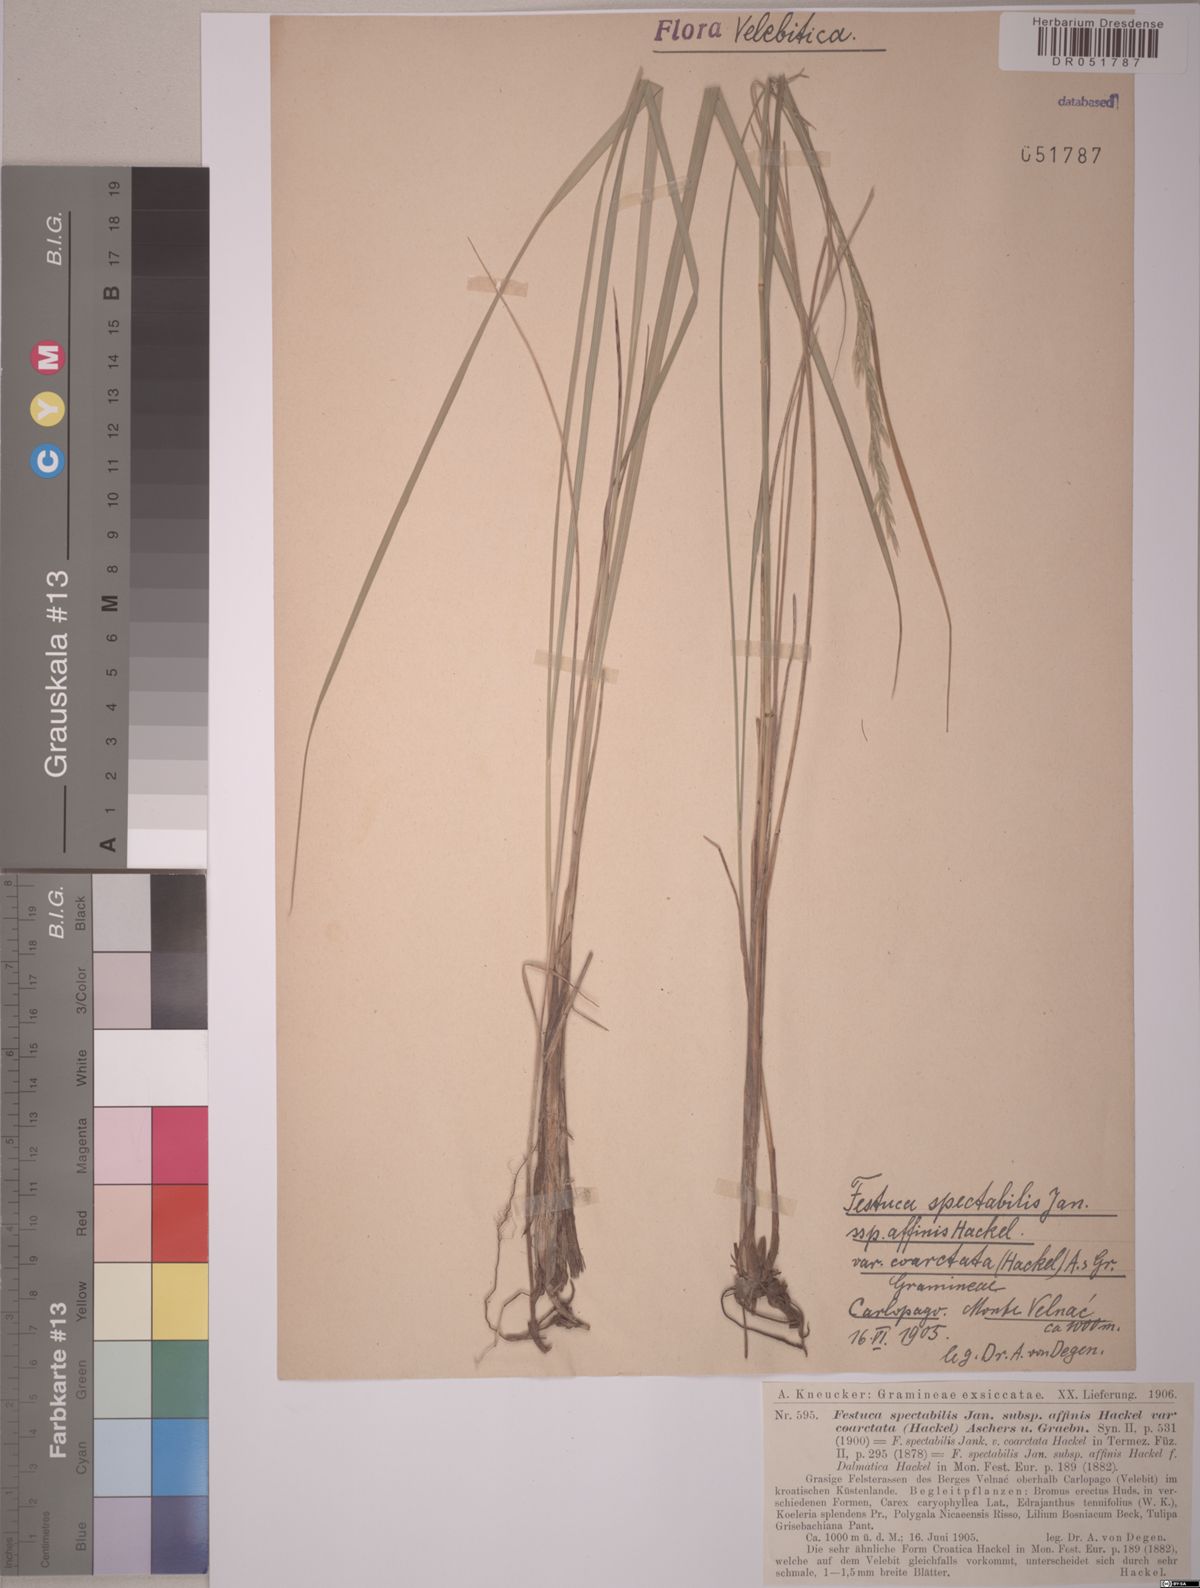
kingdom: Plantae
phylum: Tracheophyta
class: Liliopsida
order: Poales
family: Poaceae
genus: Festuca
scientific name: Festuca spectabilis
